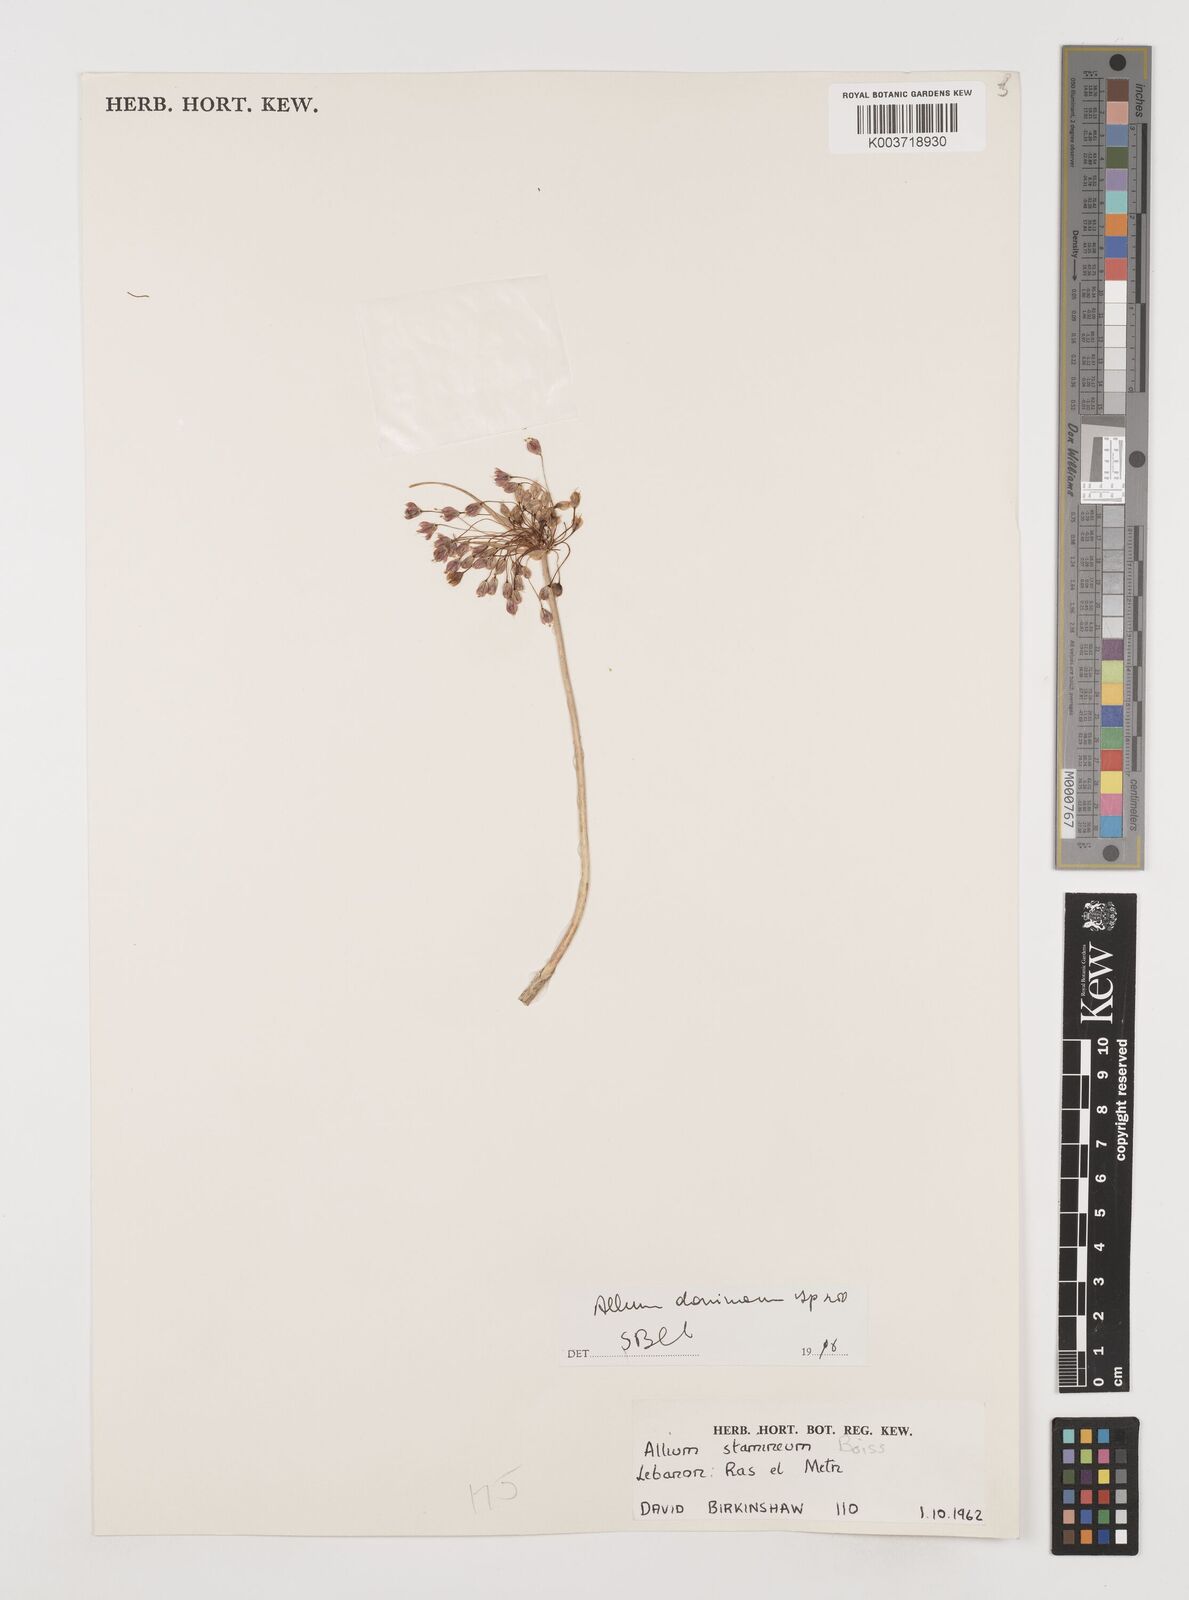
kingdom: Plantae
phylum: Tracheophyta
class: Liliopsida
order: Asparagales
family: Amaryllidaceae
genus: Allium
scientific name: Allium stamineum
